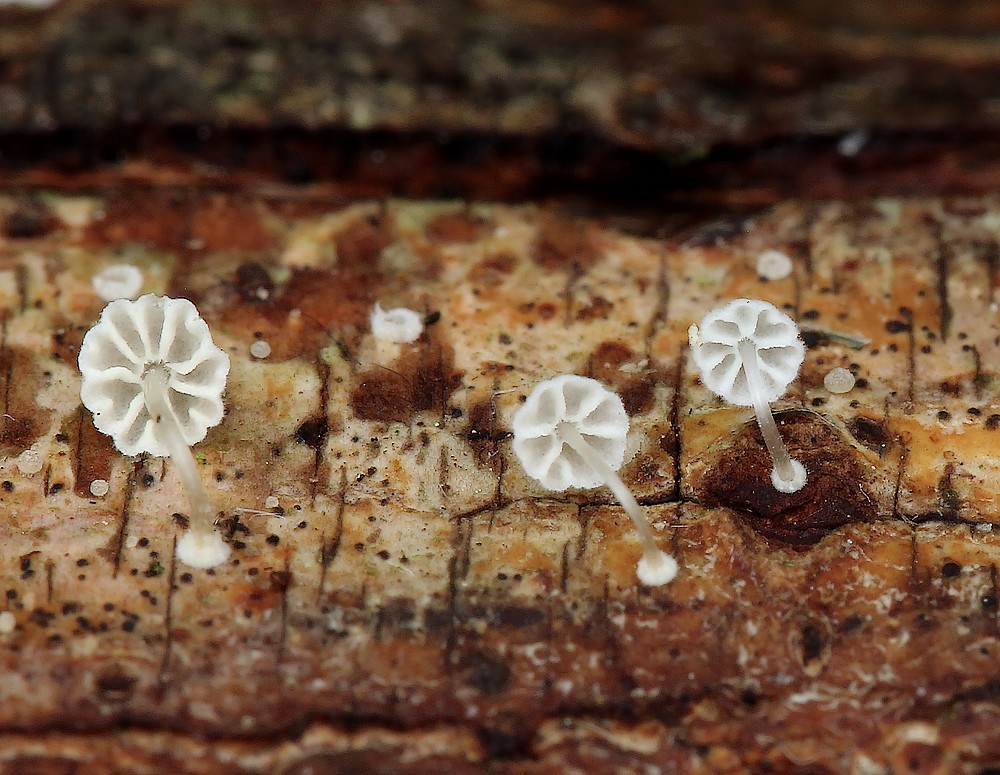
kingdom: Fungi
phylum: Basidiomycota
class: Agaricomycetes
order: Agaricales
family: Mycenaceae
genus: Mycena
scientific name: Mycena clavularis
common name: dunskivet huesvamp
